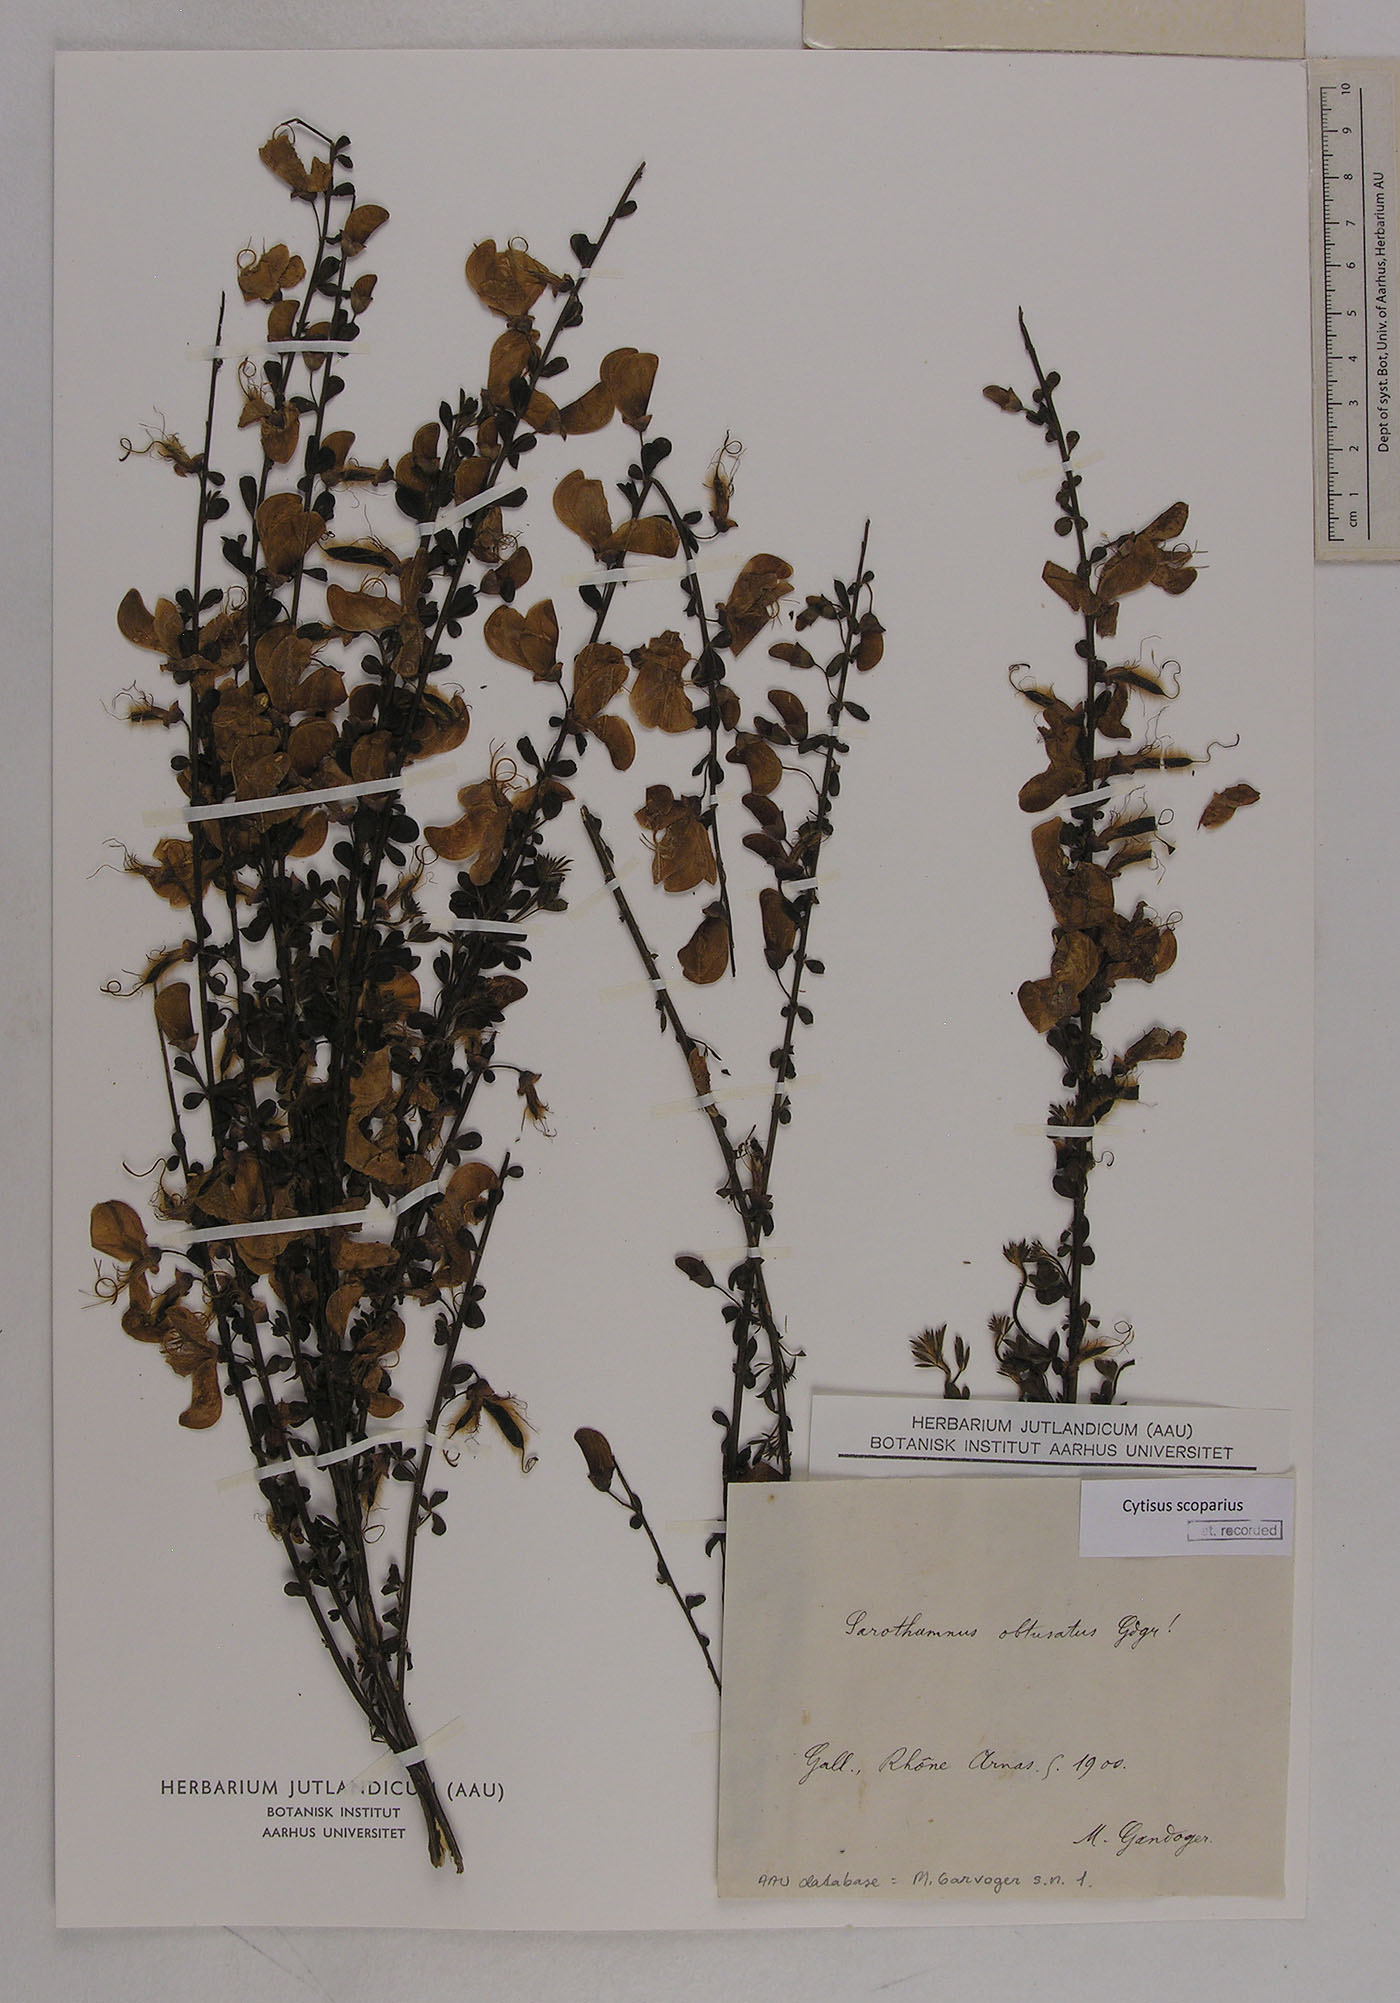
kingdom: Plantae
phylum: Tracheophyta
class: Magnoliopsida
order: Fabales
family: Fabaceae
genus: Cytisus
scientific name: Cytisus scoparius
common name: Scotch broom
